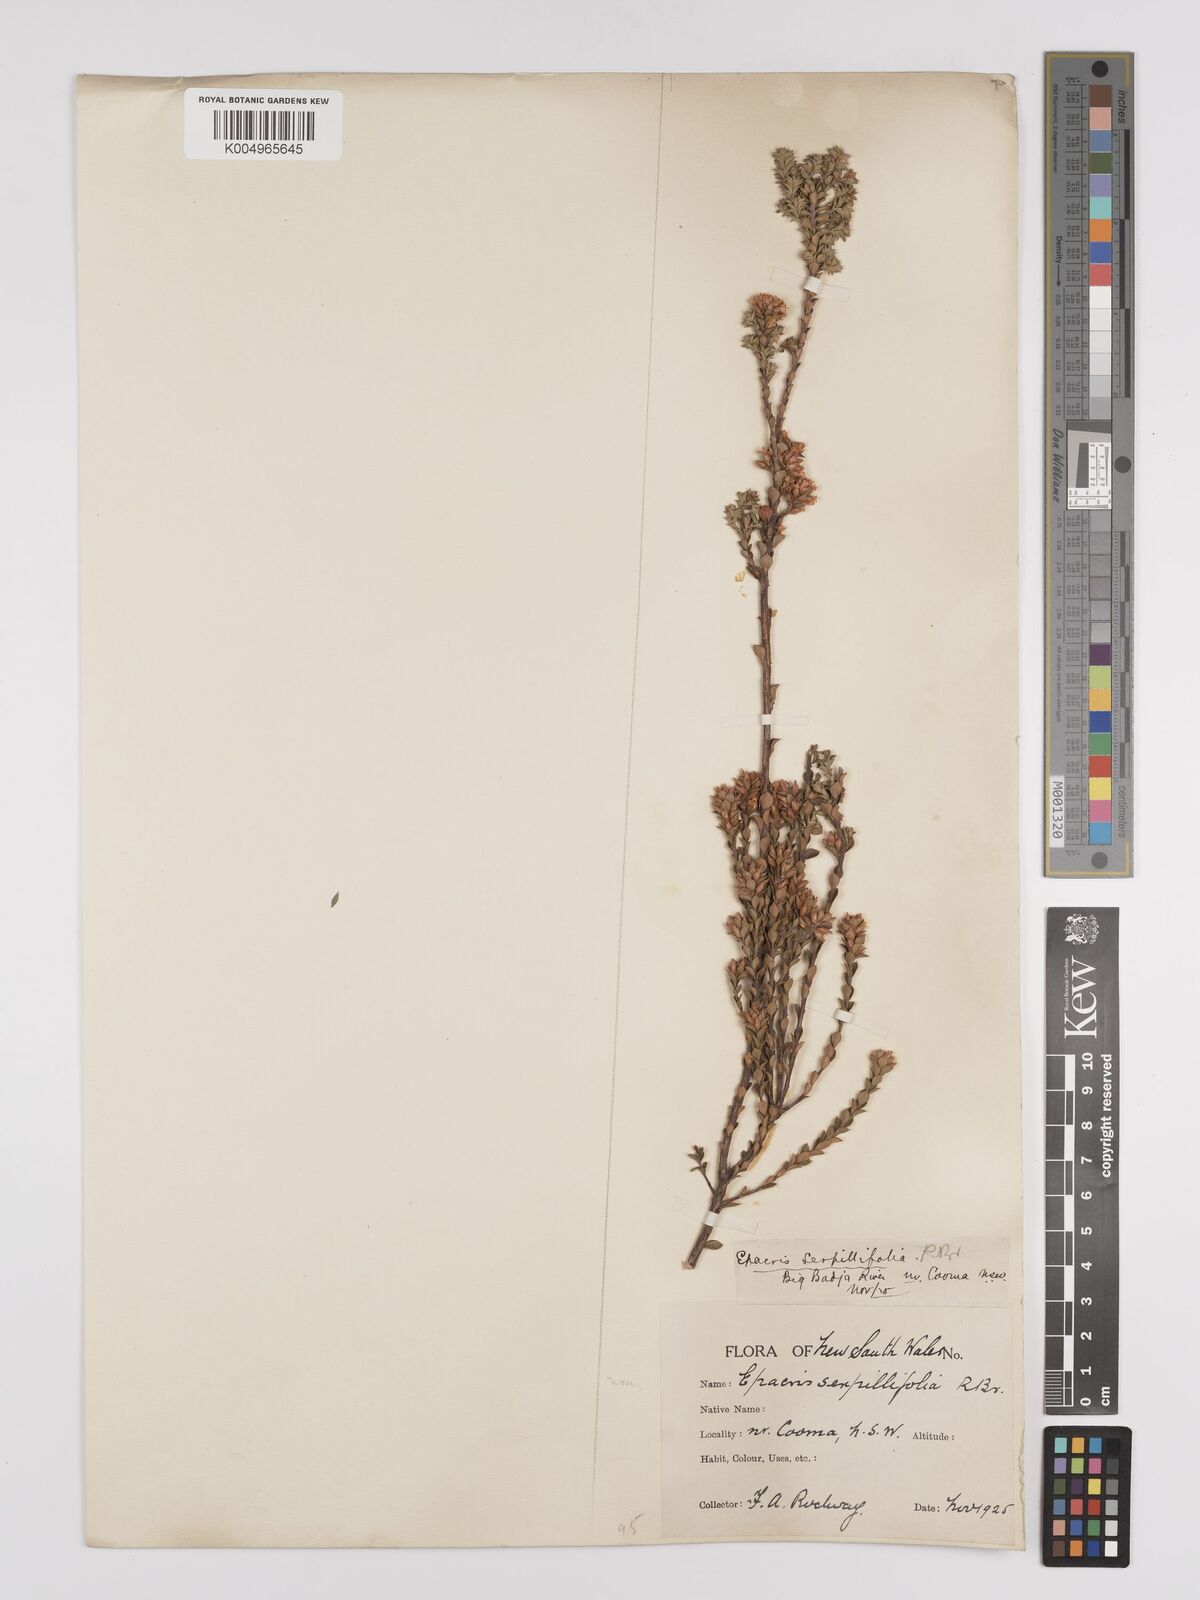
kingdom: Plantae
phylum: Tracheophyta
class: Magnoliopsida
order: Ericales
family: Ericaceae
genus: Epacris
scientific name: Epacris serpyllifolia
